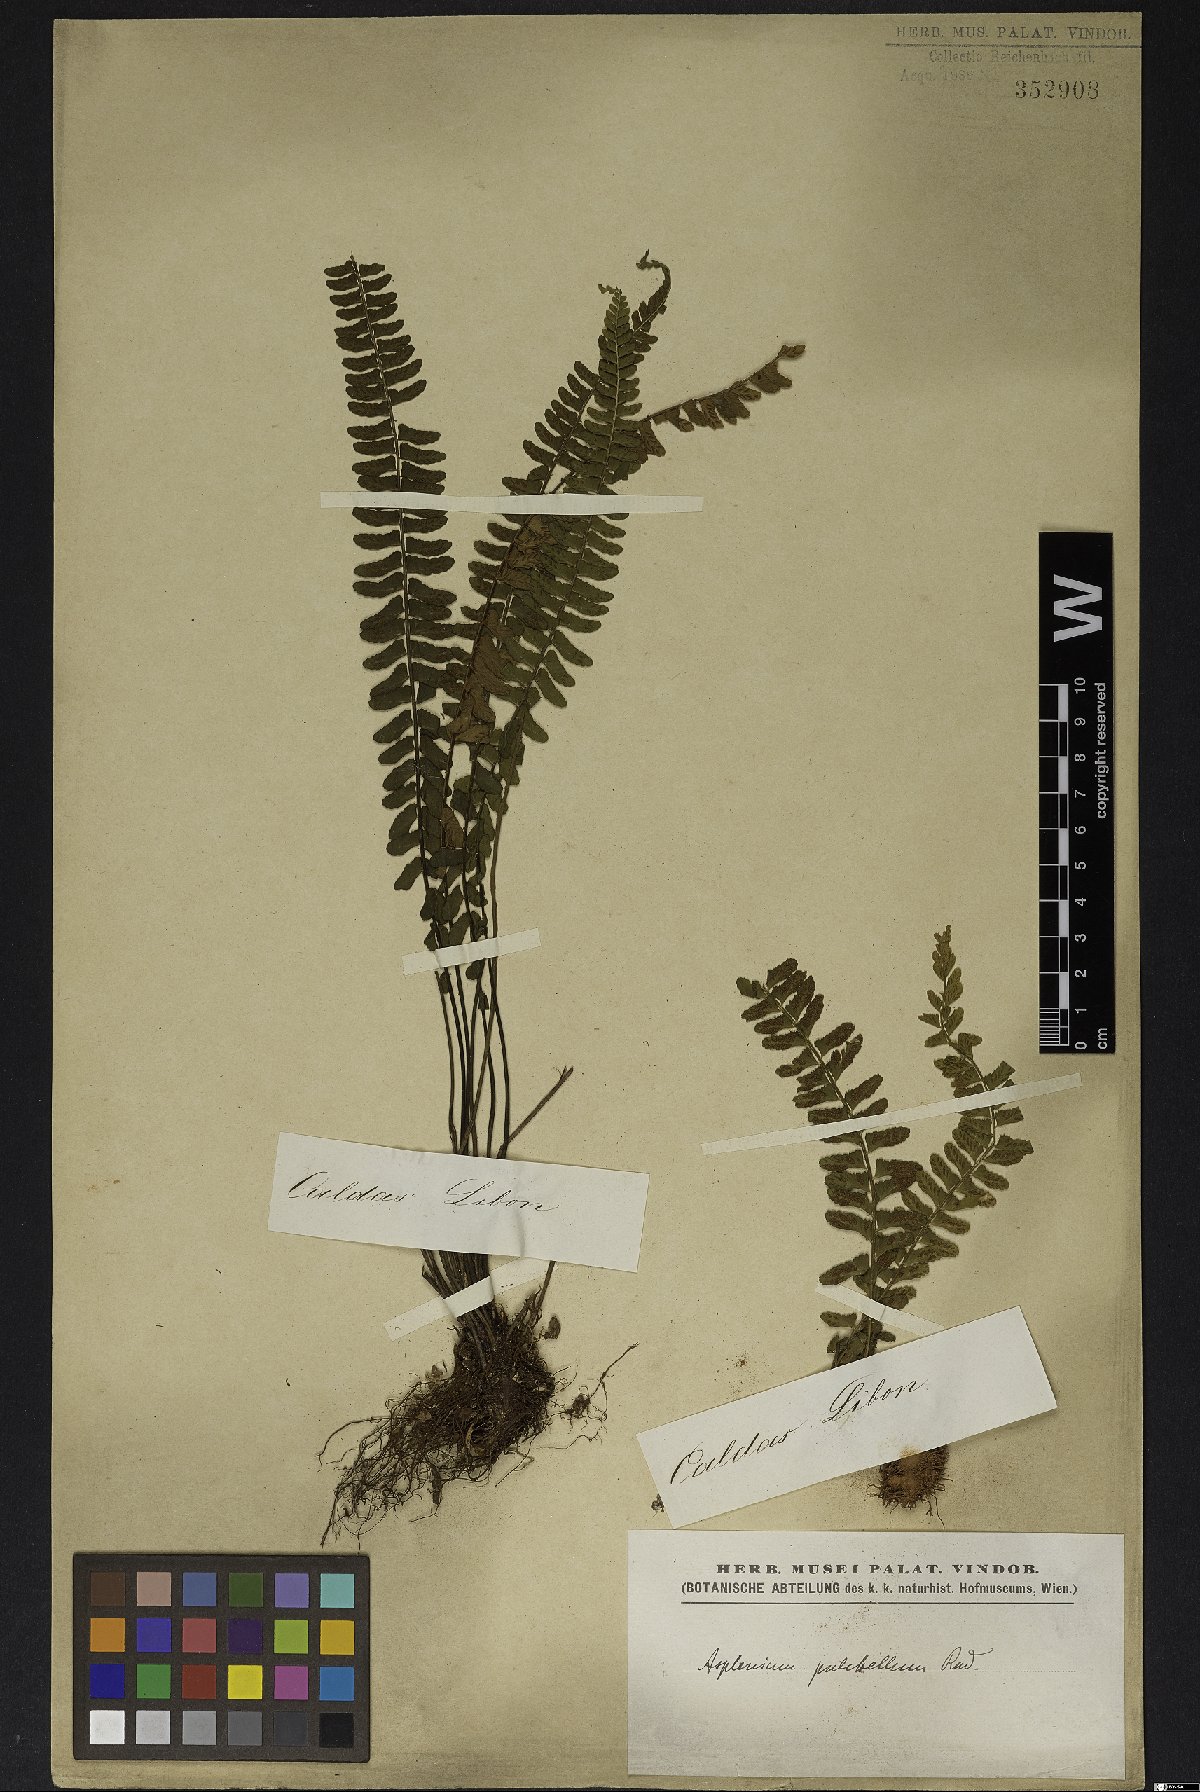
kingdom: Plantae
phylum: Tracheophyta
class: Polypodiopsida
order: Polypodiales
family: Aspleniaceae
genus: Asplenium
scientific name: Asplenium pulchellum
